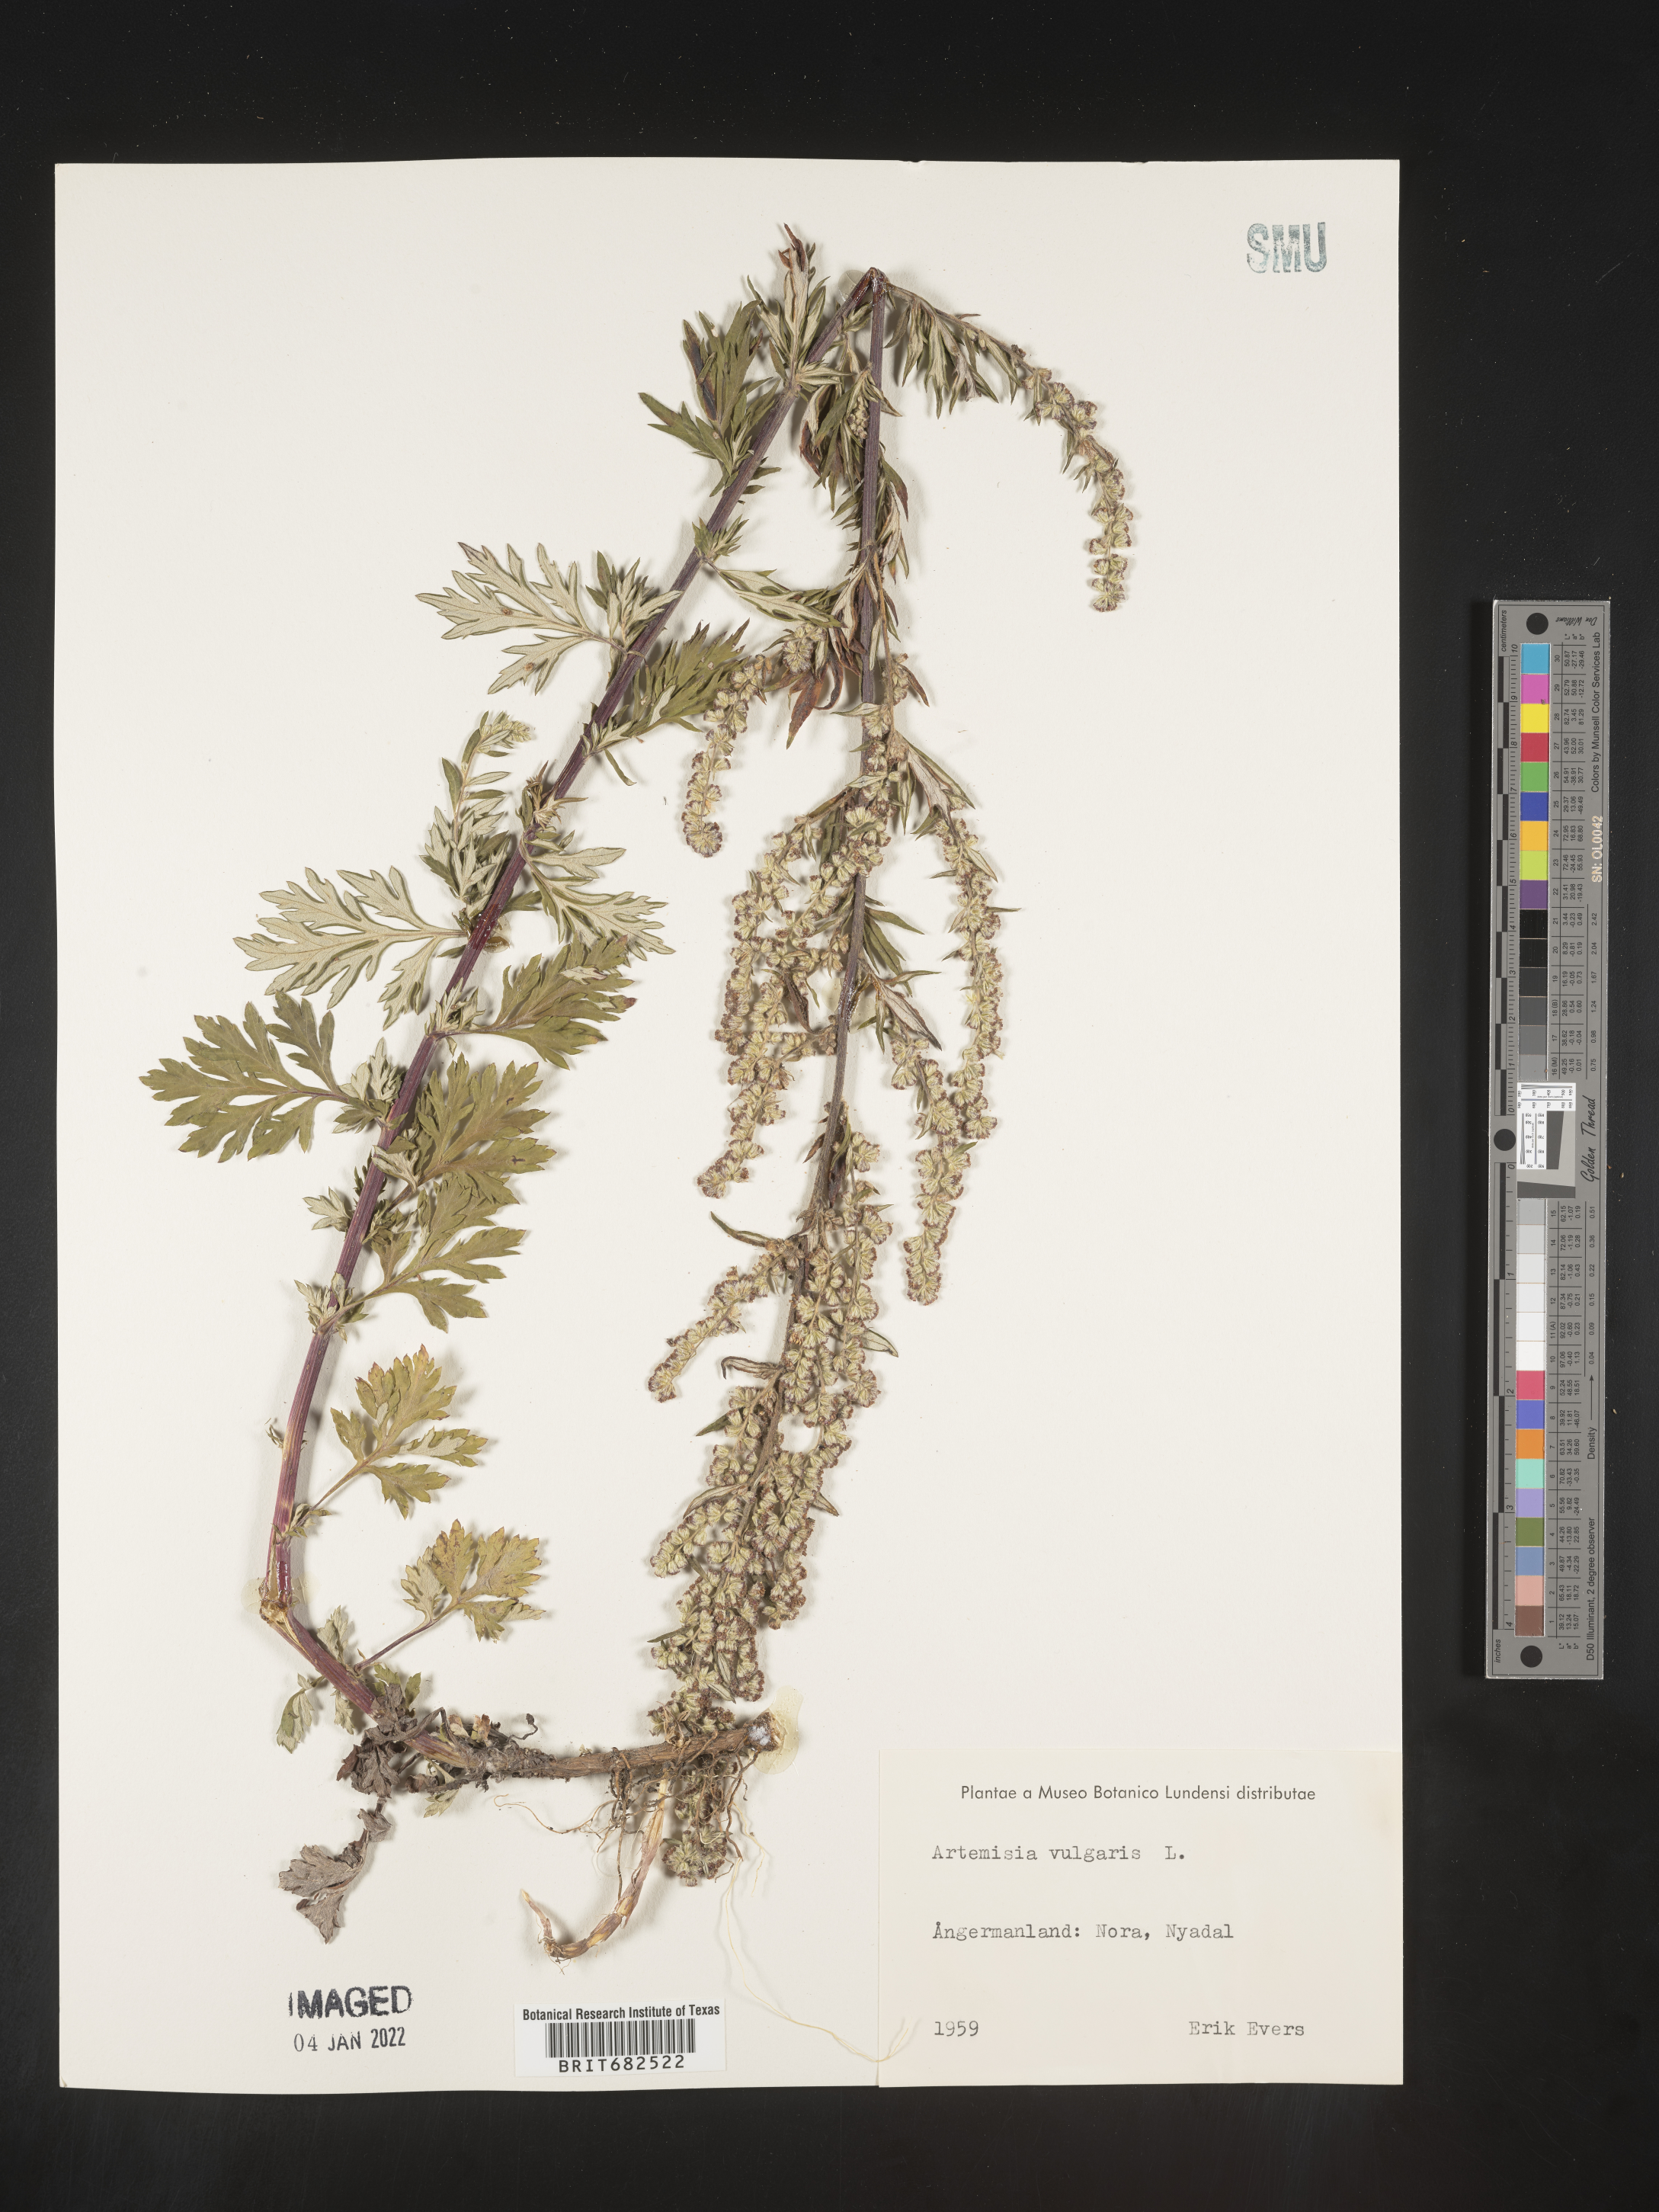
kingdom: Plantae
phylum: Tracheophyta
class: Magnoliopsida
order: Asterales
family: Asteraceae
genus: Artemisia
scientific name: Artemisia
